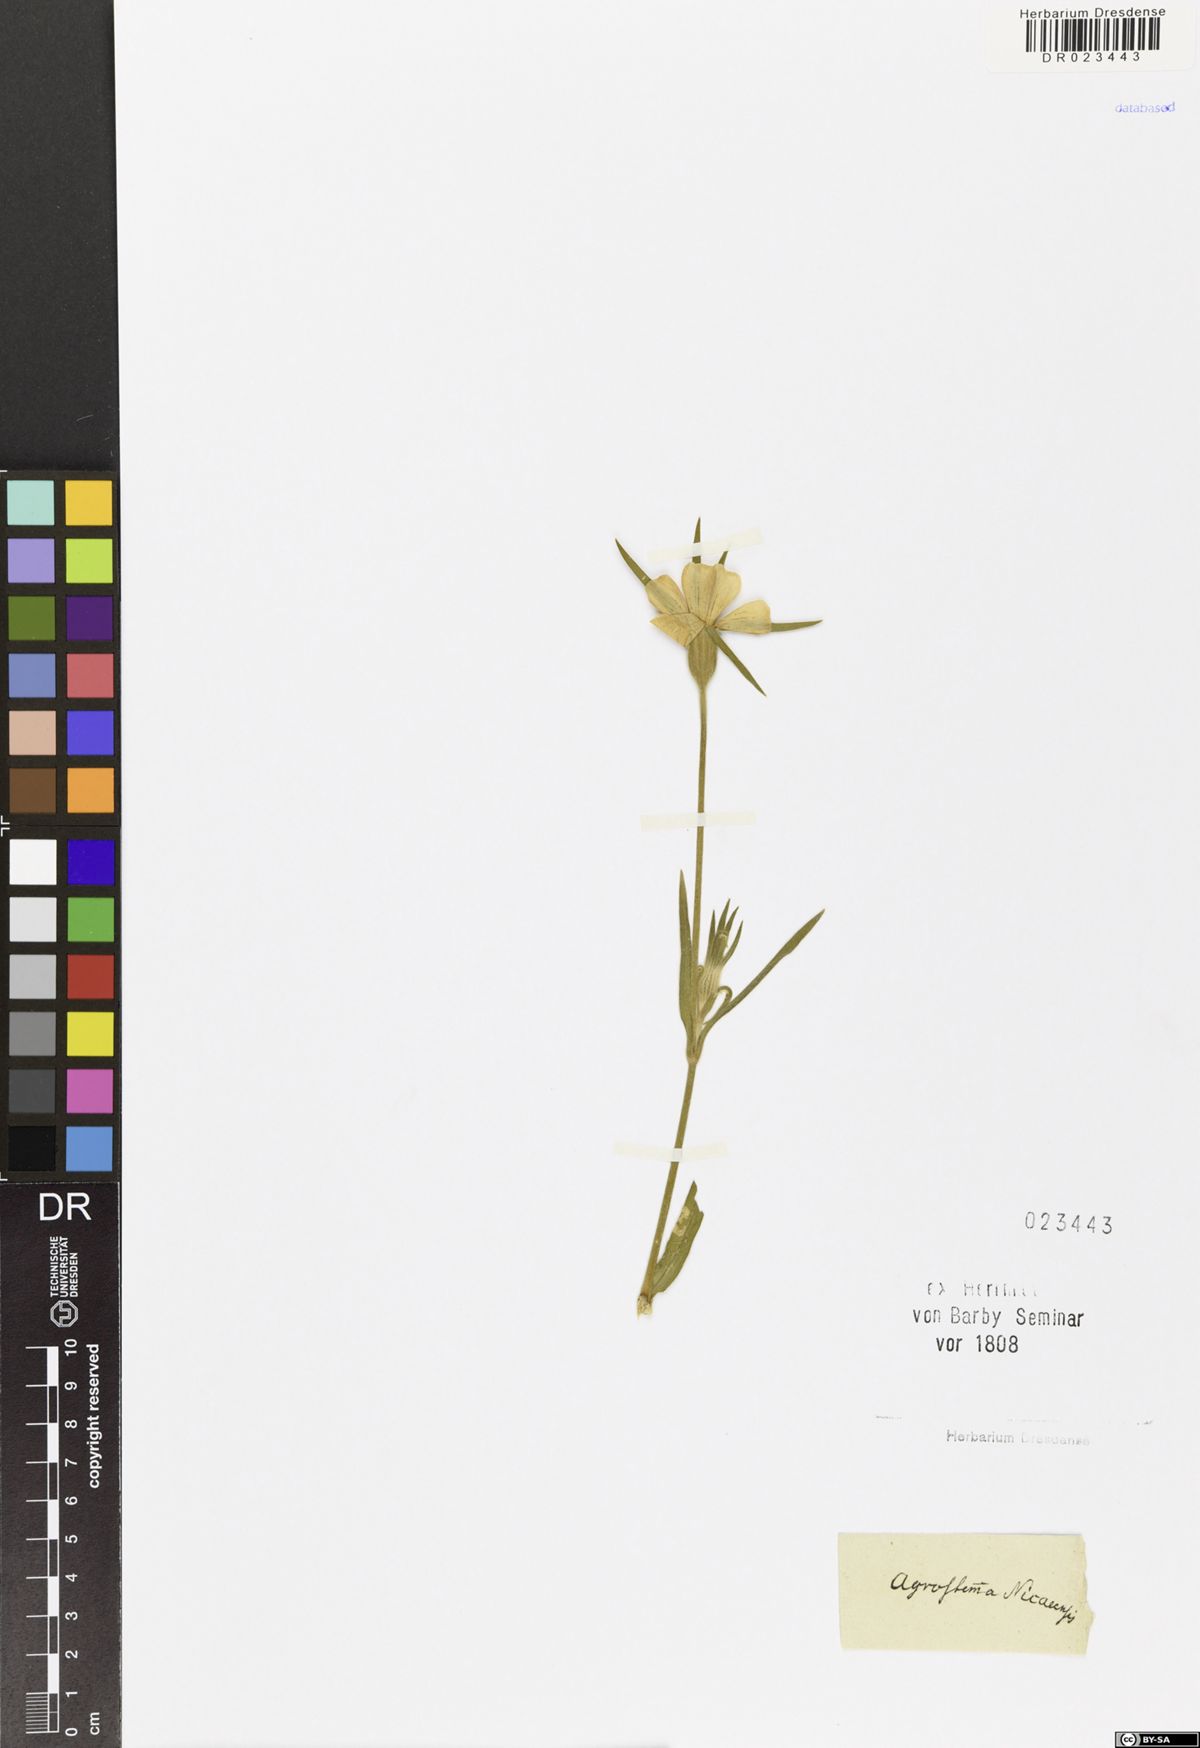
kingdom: Plantae
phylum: Tracheophyta
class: Magnoliopsida
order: Caryophyllales
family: Caryophyllaceae
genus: Agrostemma
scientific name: Agrostemma githago
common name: Common corncockle
